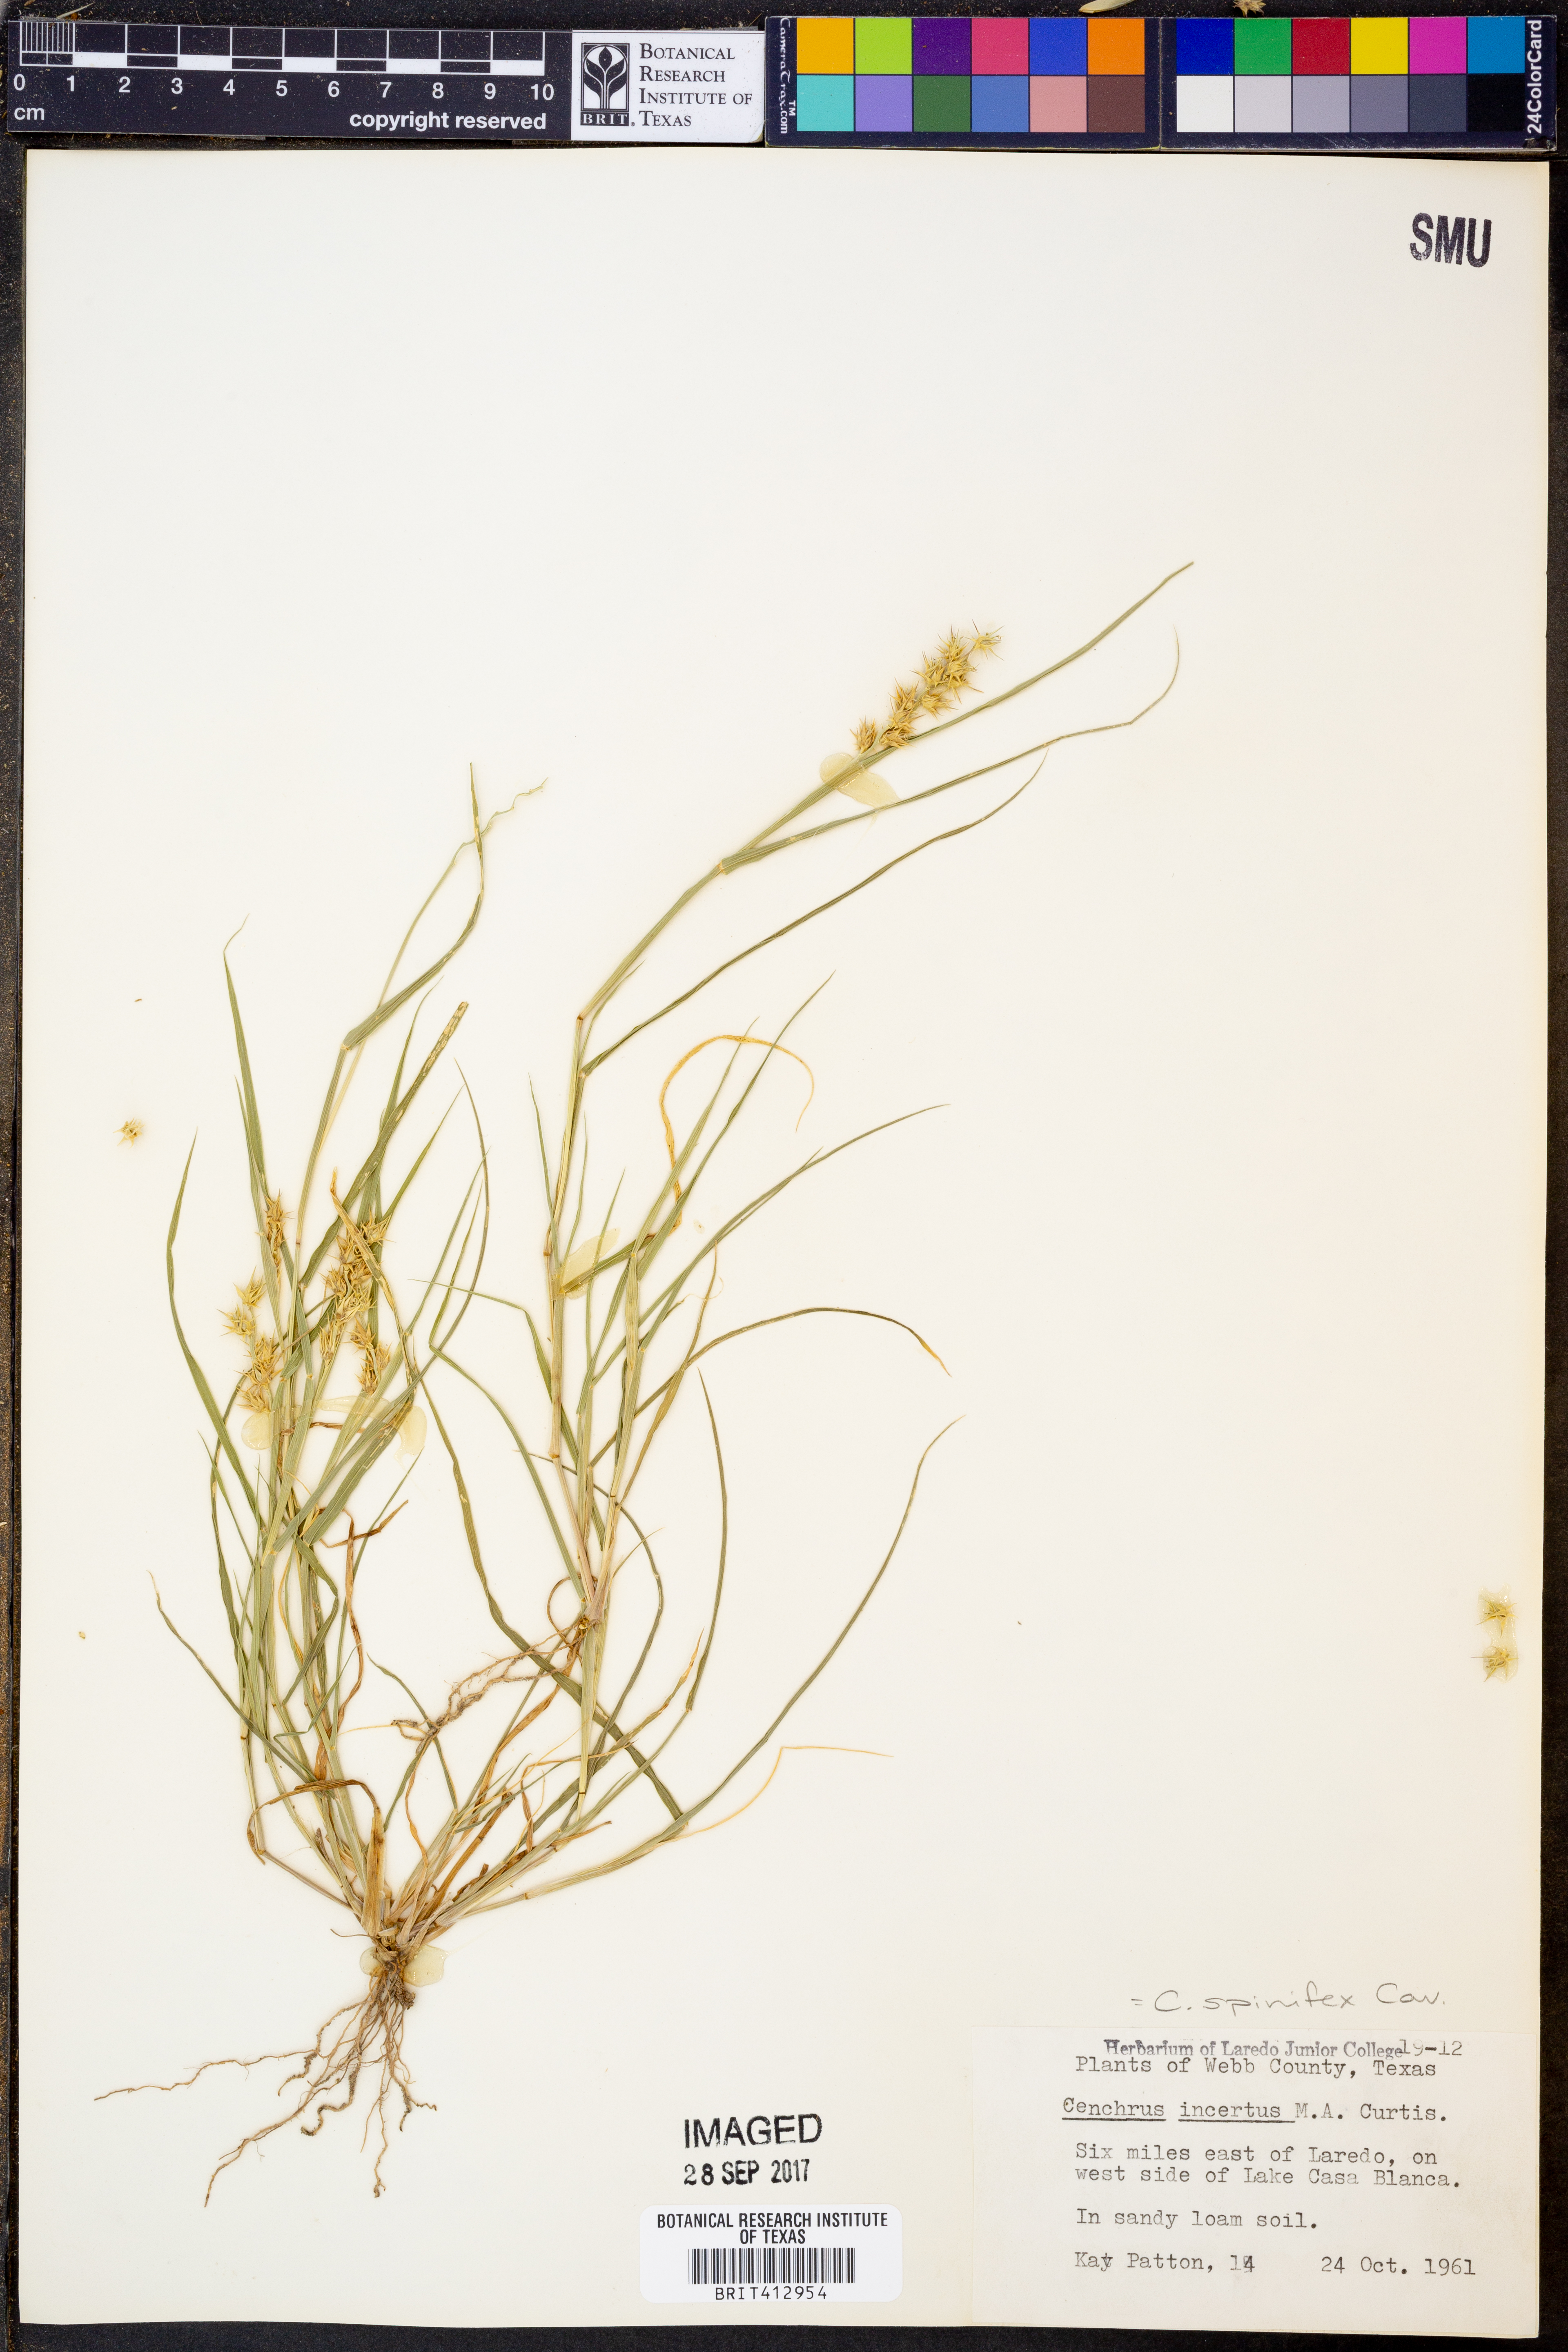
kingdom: Plantae
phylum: Tracheophyta
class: Liliopsida
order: Poales
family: Poaceae
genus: Cenchrus
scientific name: Cenchrus spinifex
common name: Coast sandbur
